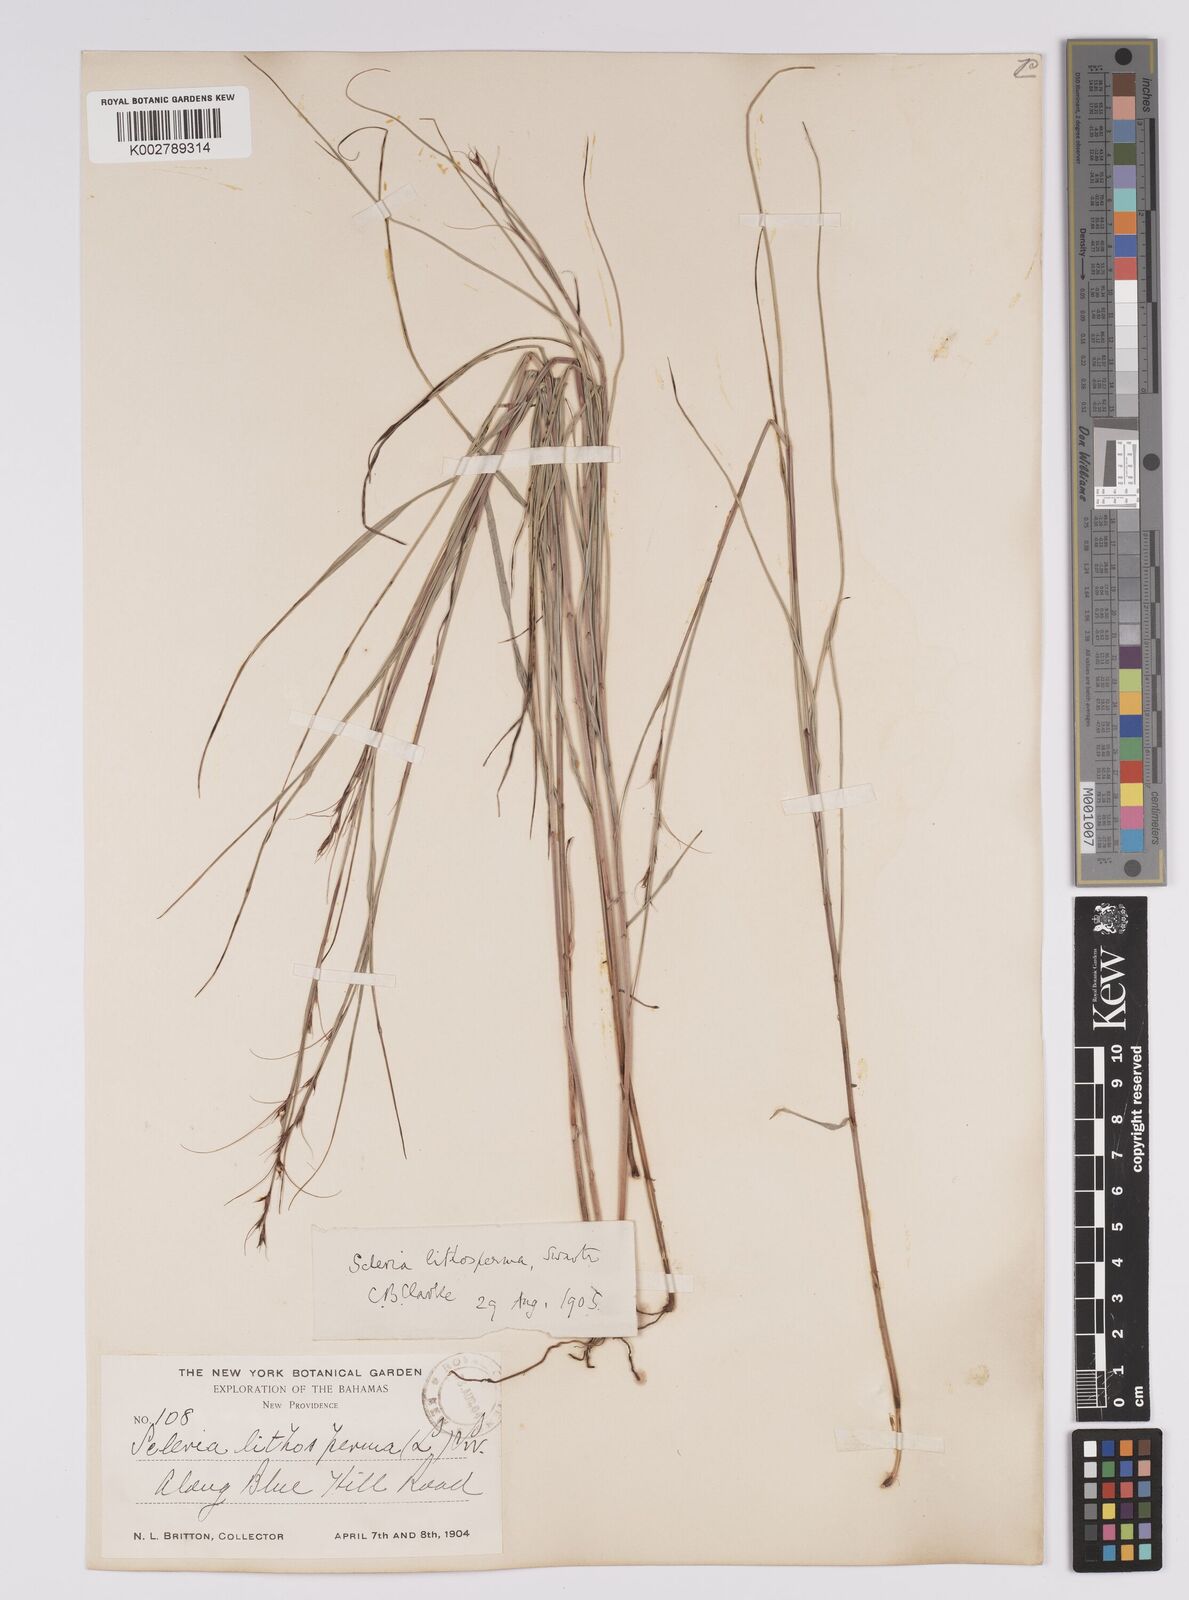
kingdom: Plantae
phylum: Tracheophyta
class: Liliopsida
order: Poales
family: Cyperaceae
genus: Scleria
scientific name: Scleria lithosperma
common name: Florida keys nut-rush
